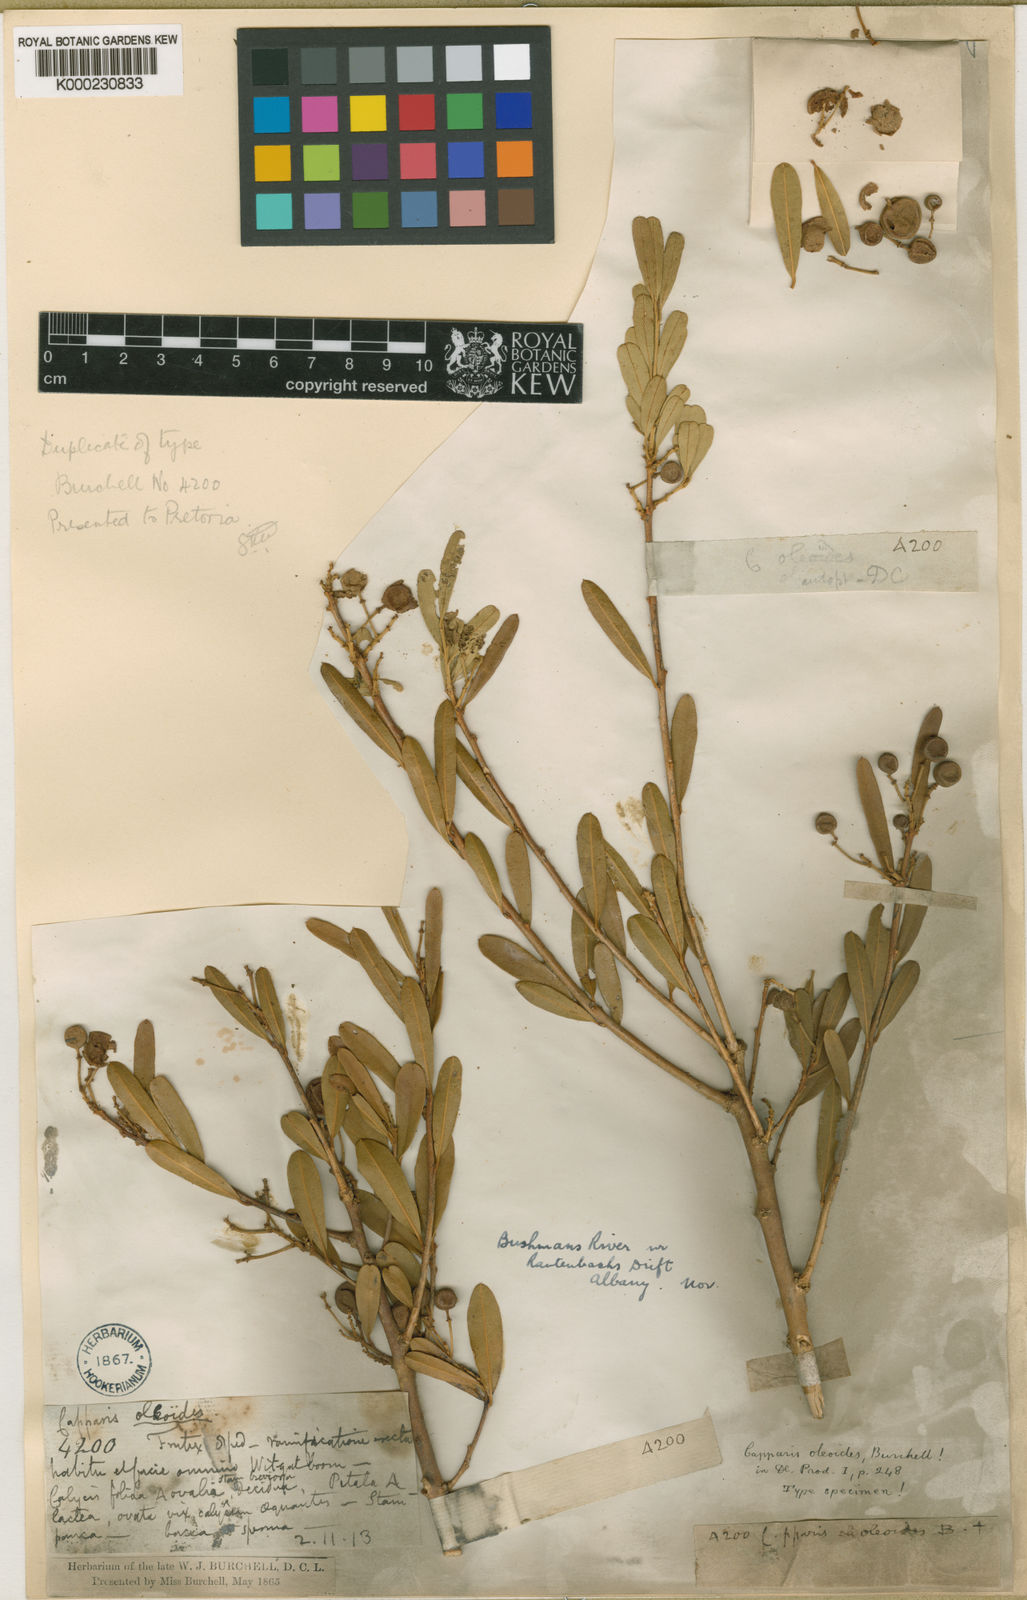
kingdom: Plantae
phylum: Tracheophyta
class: Magnoliopsida
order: Brassicales
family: Capparaceae
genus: Boscia
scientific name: Boscia oleoides
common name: Karoo shepherd tree
